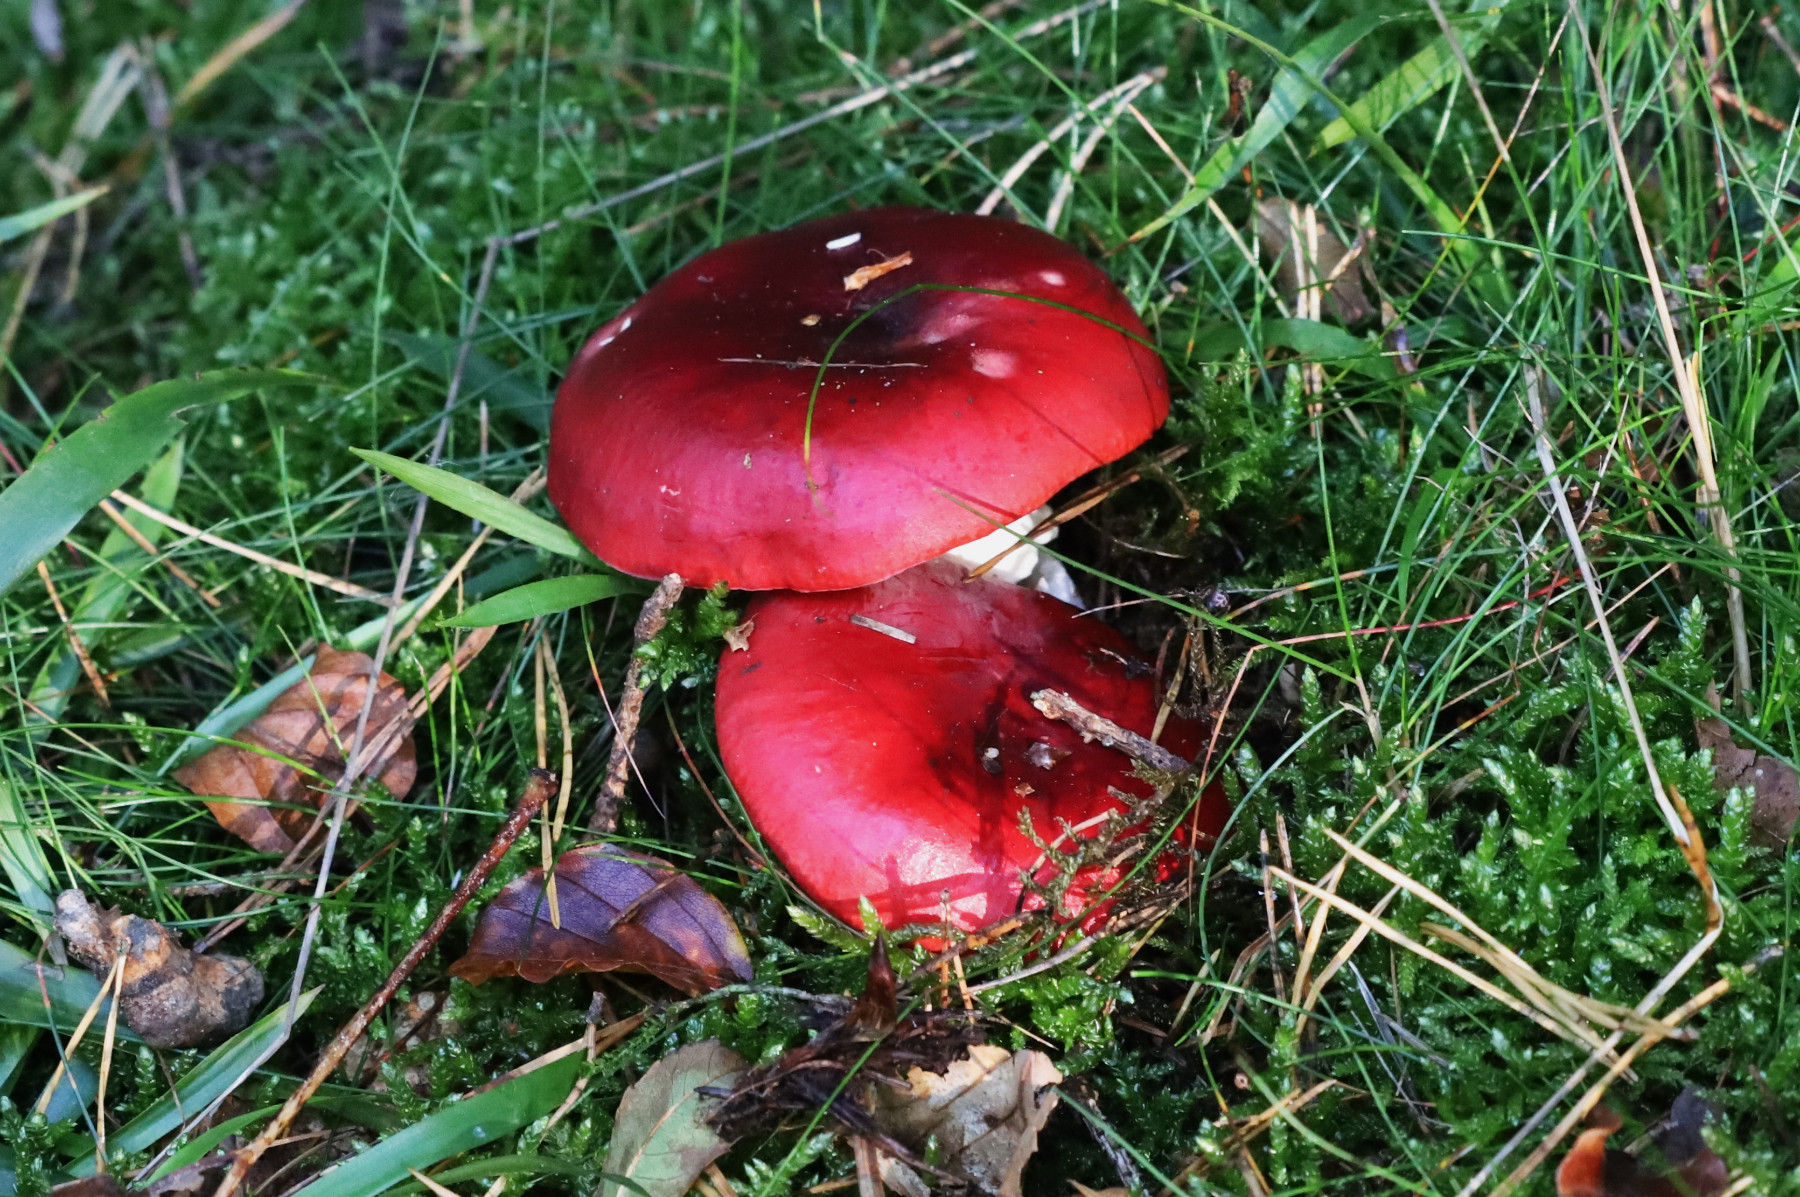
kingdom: Fungi
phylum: Basidiomycota
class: Agaricomycetes
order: Russulales
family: Russulaceae
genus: Russula
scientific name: Russula
